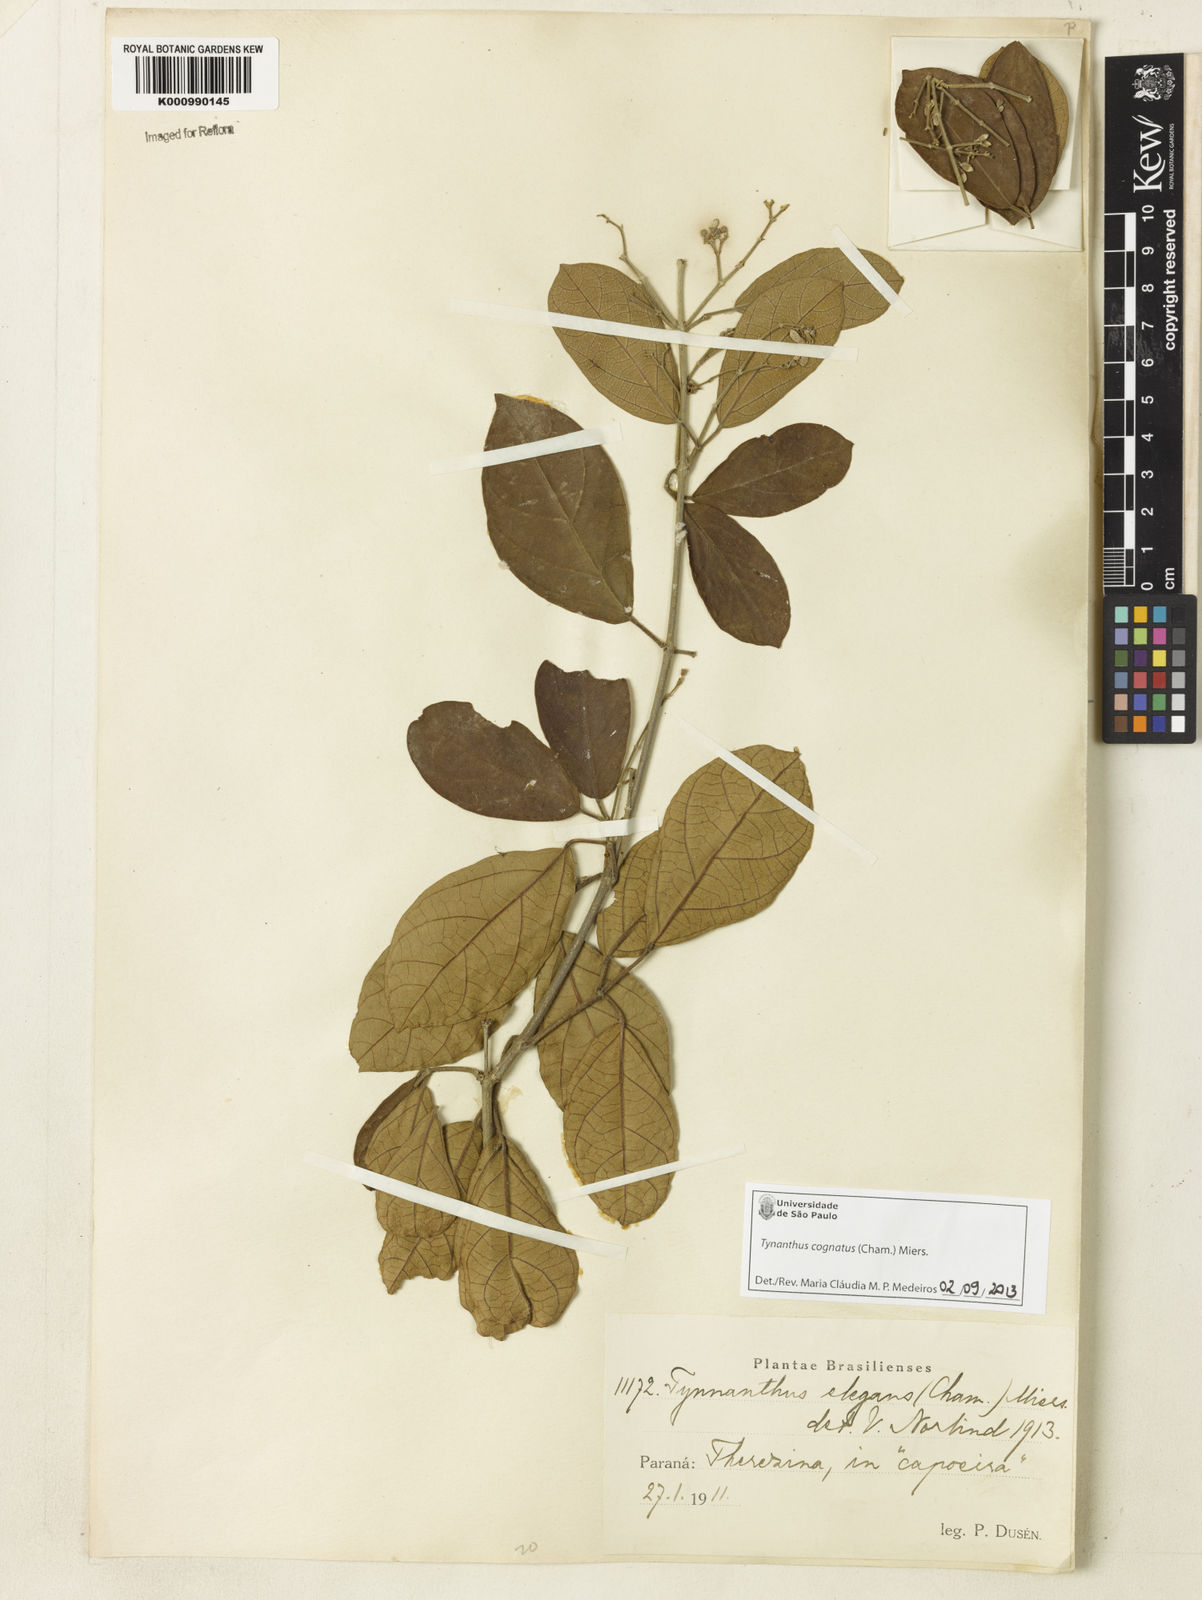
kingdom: Plantae
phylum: Tracheophyta
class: Magnoliopsida
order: Lamiales
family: Bignoniaceae
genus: Tynanthus
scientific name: Tynanthus cognatus
